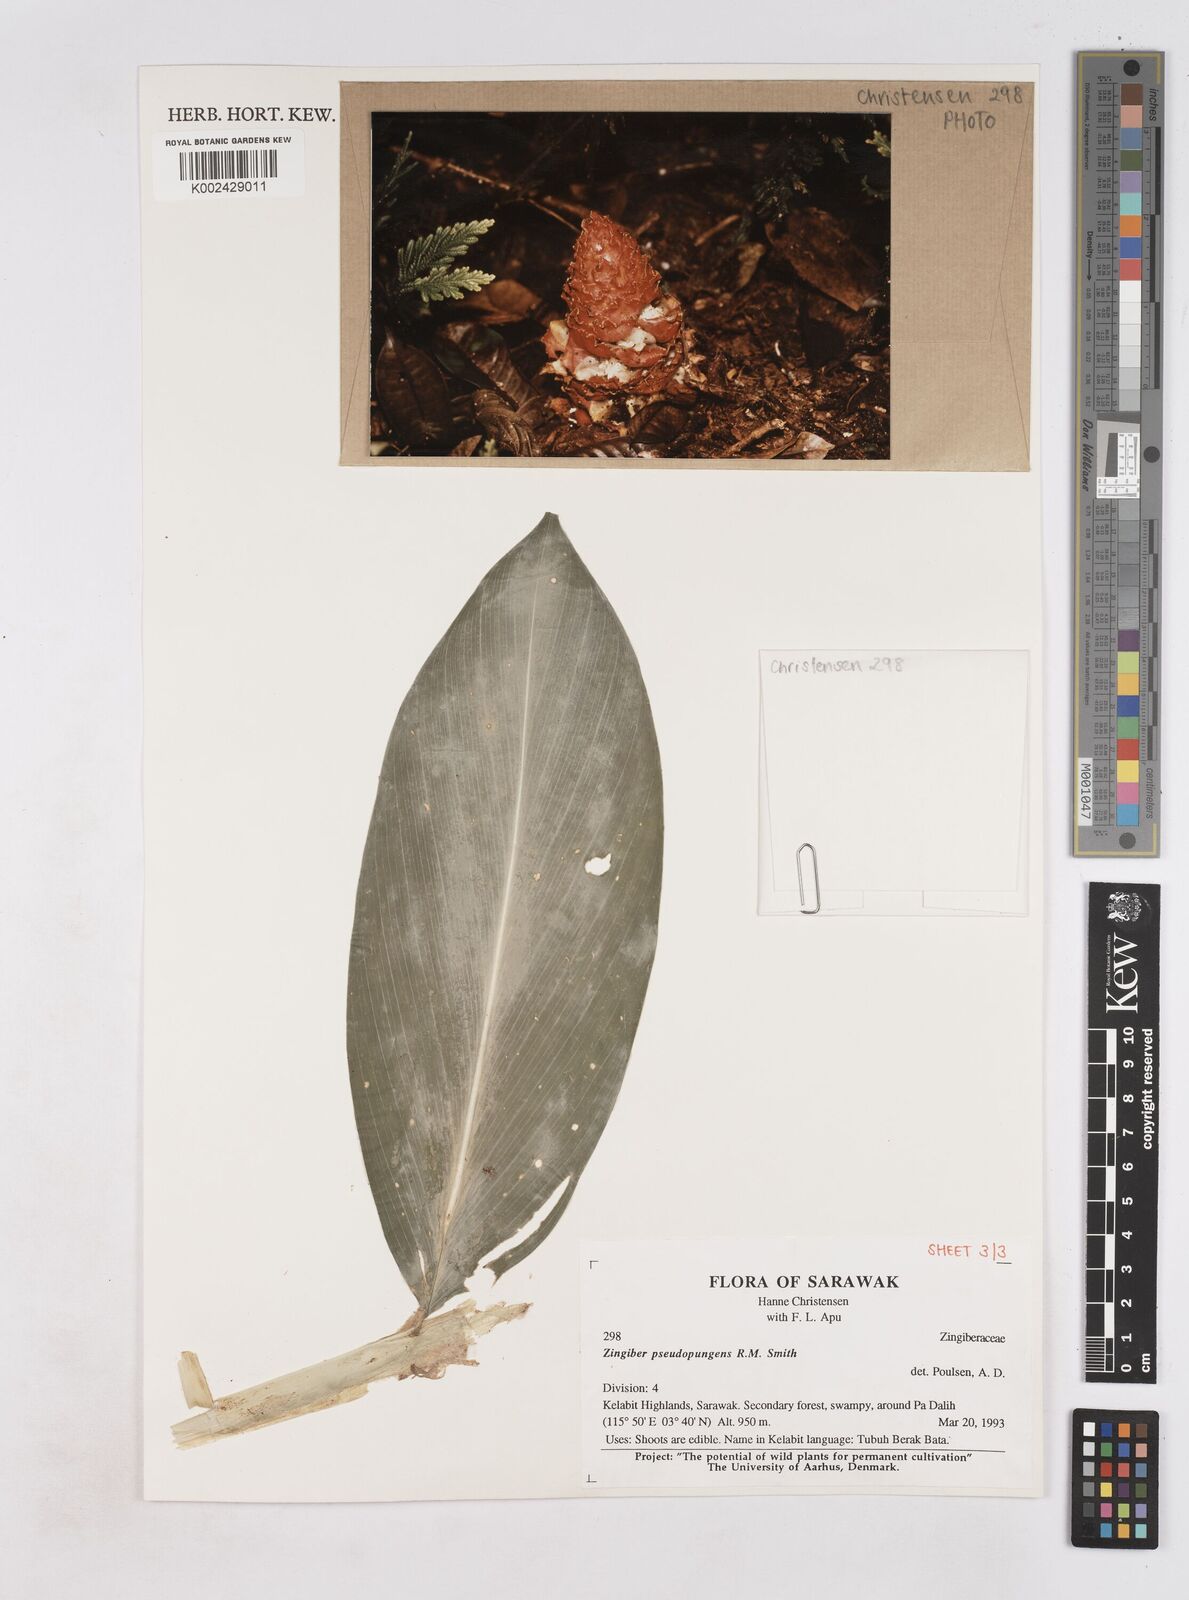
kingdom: Plantae
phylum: Tracheophyta
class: Liliopsida
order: Zingiberales
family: Zingiberaceae
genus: Zingiber
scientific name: Zingiber pseudopungens
